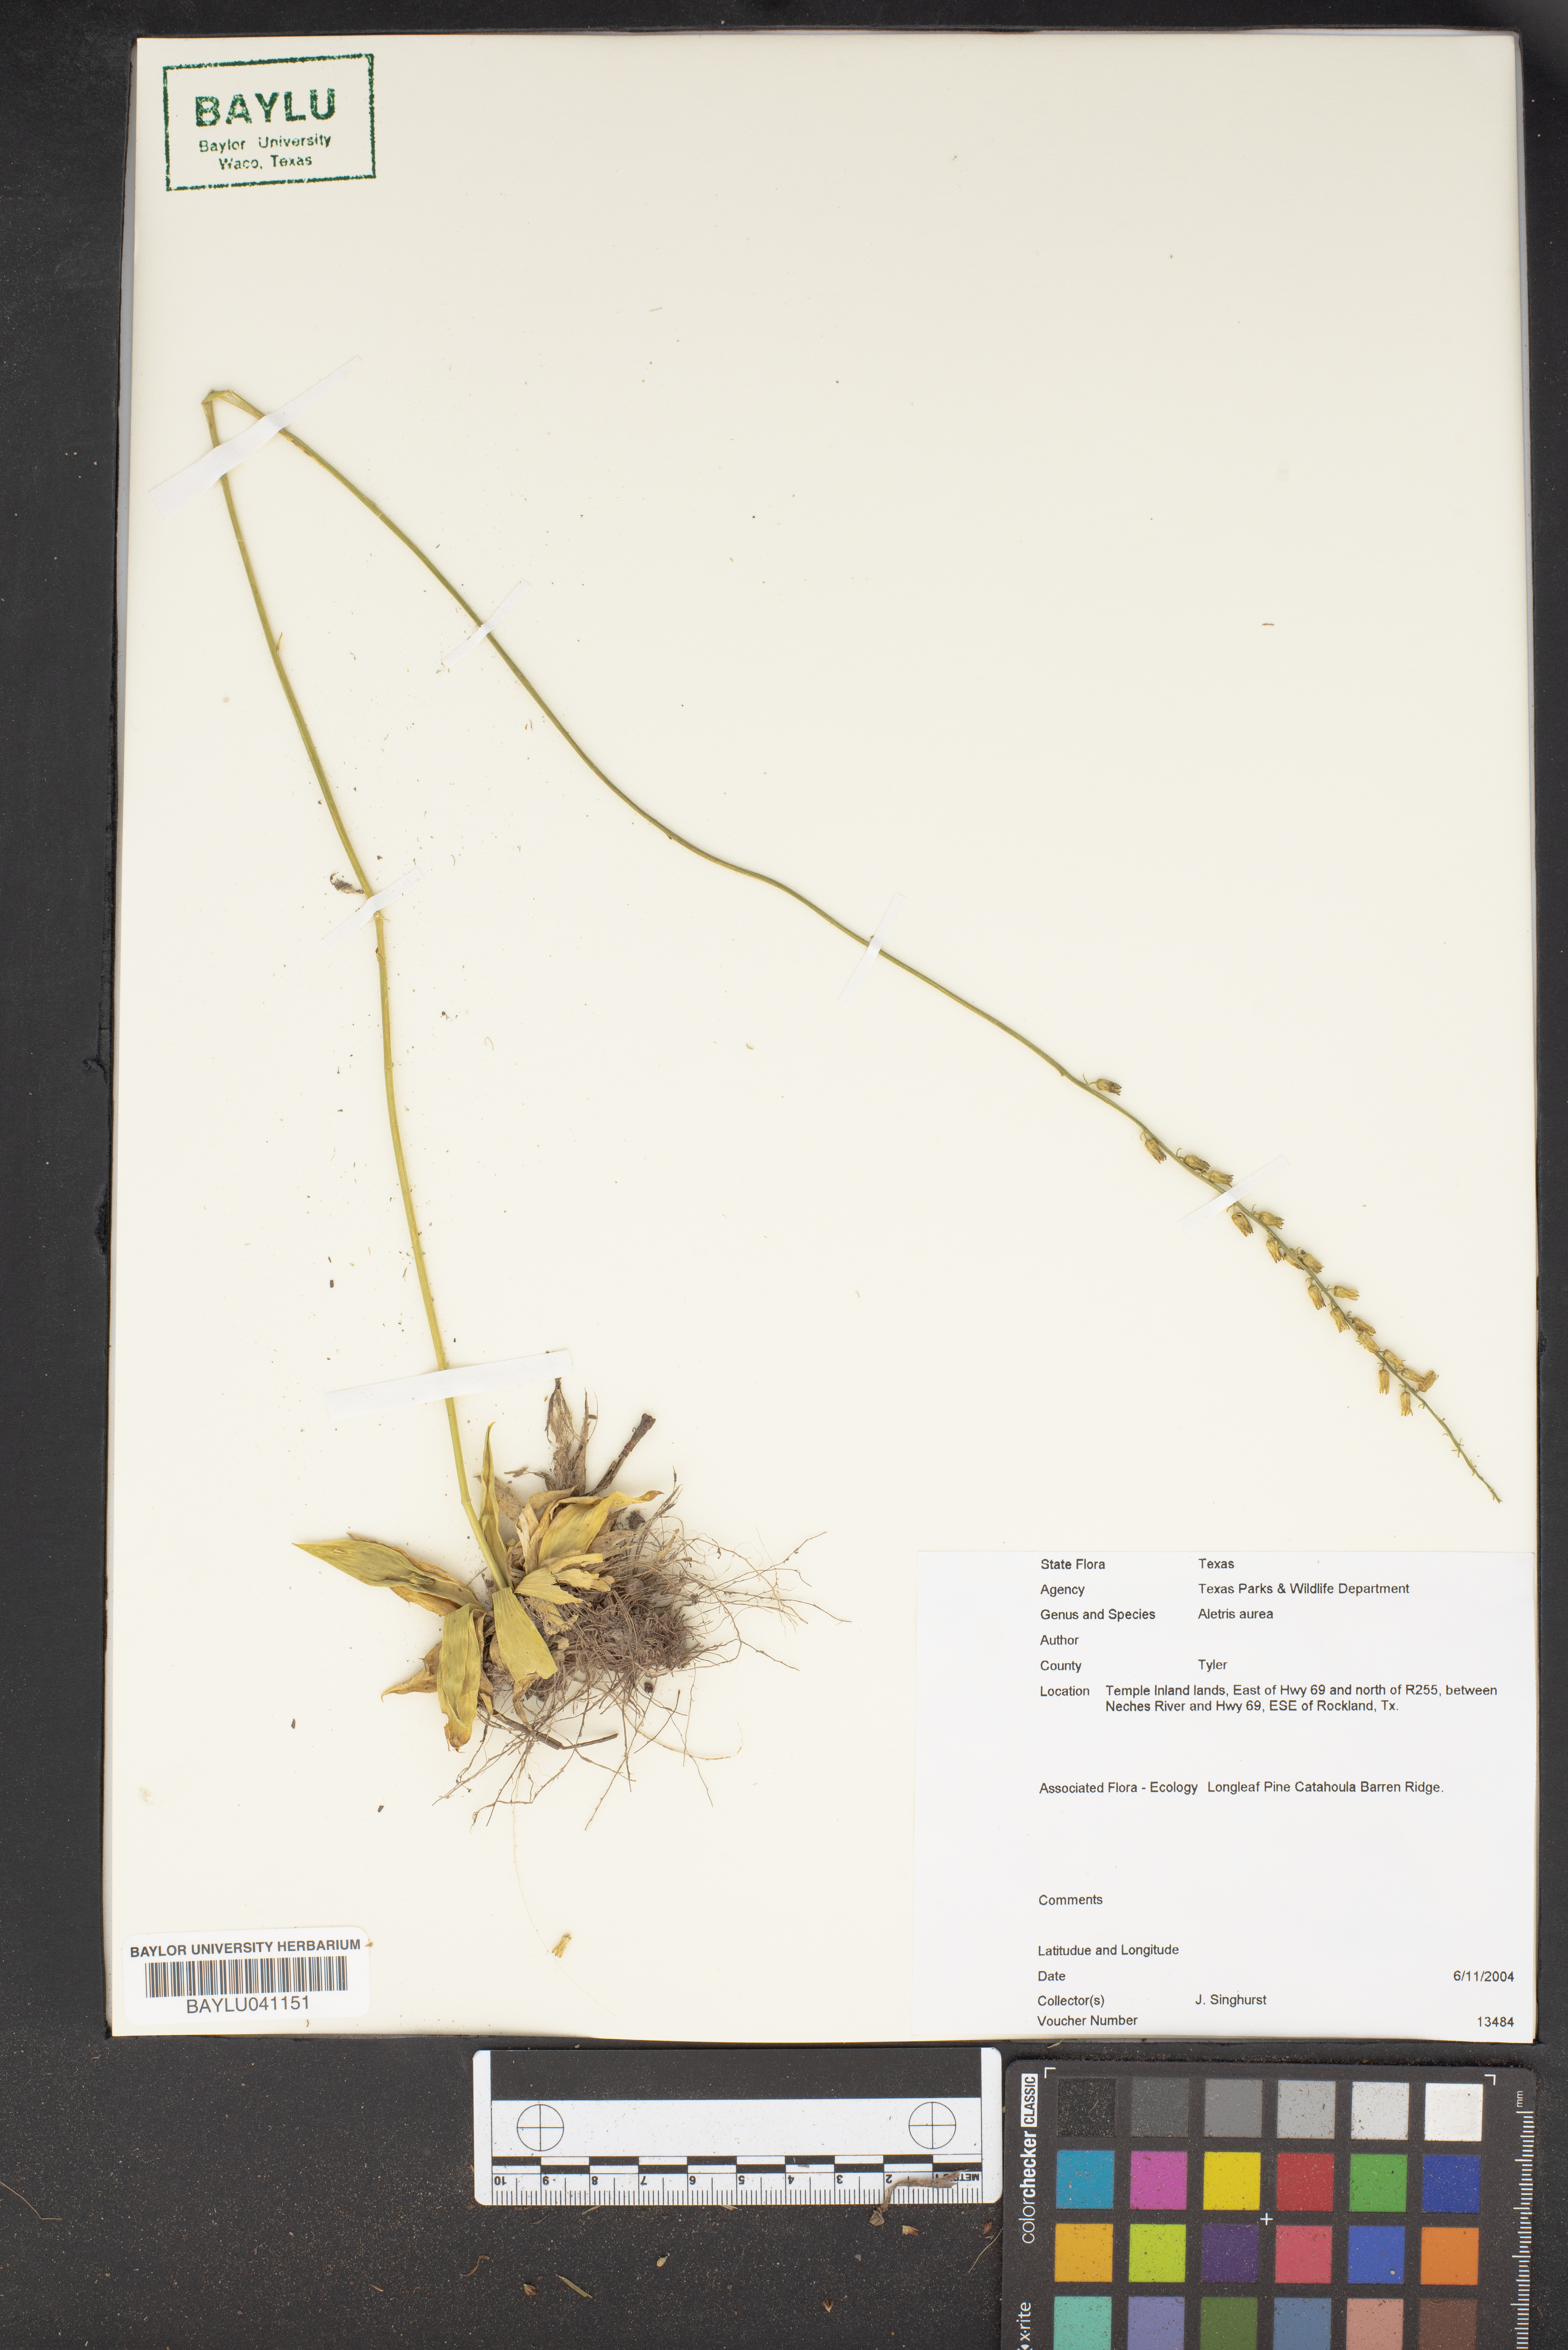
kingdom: Plantae
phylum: Tracheophyta
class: Liliopsida
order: Dioscoreales
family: Nartheciaceae
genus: Aletris
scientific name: Aletris aurea
